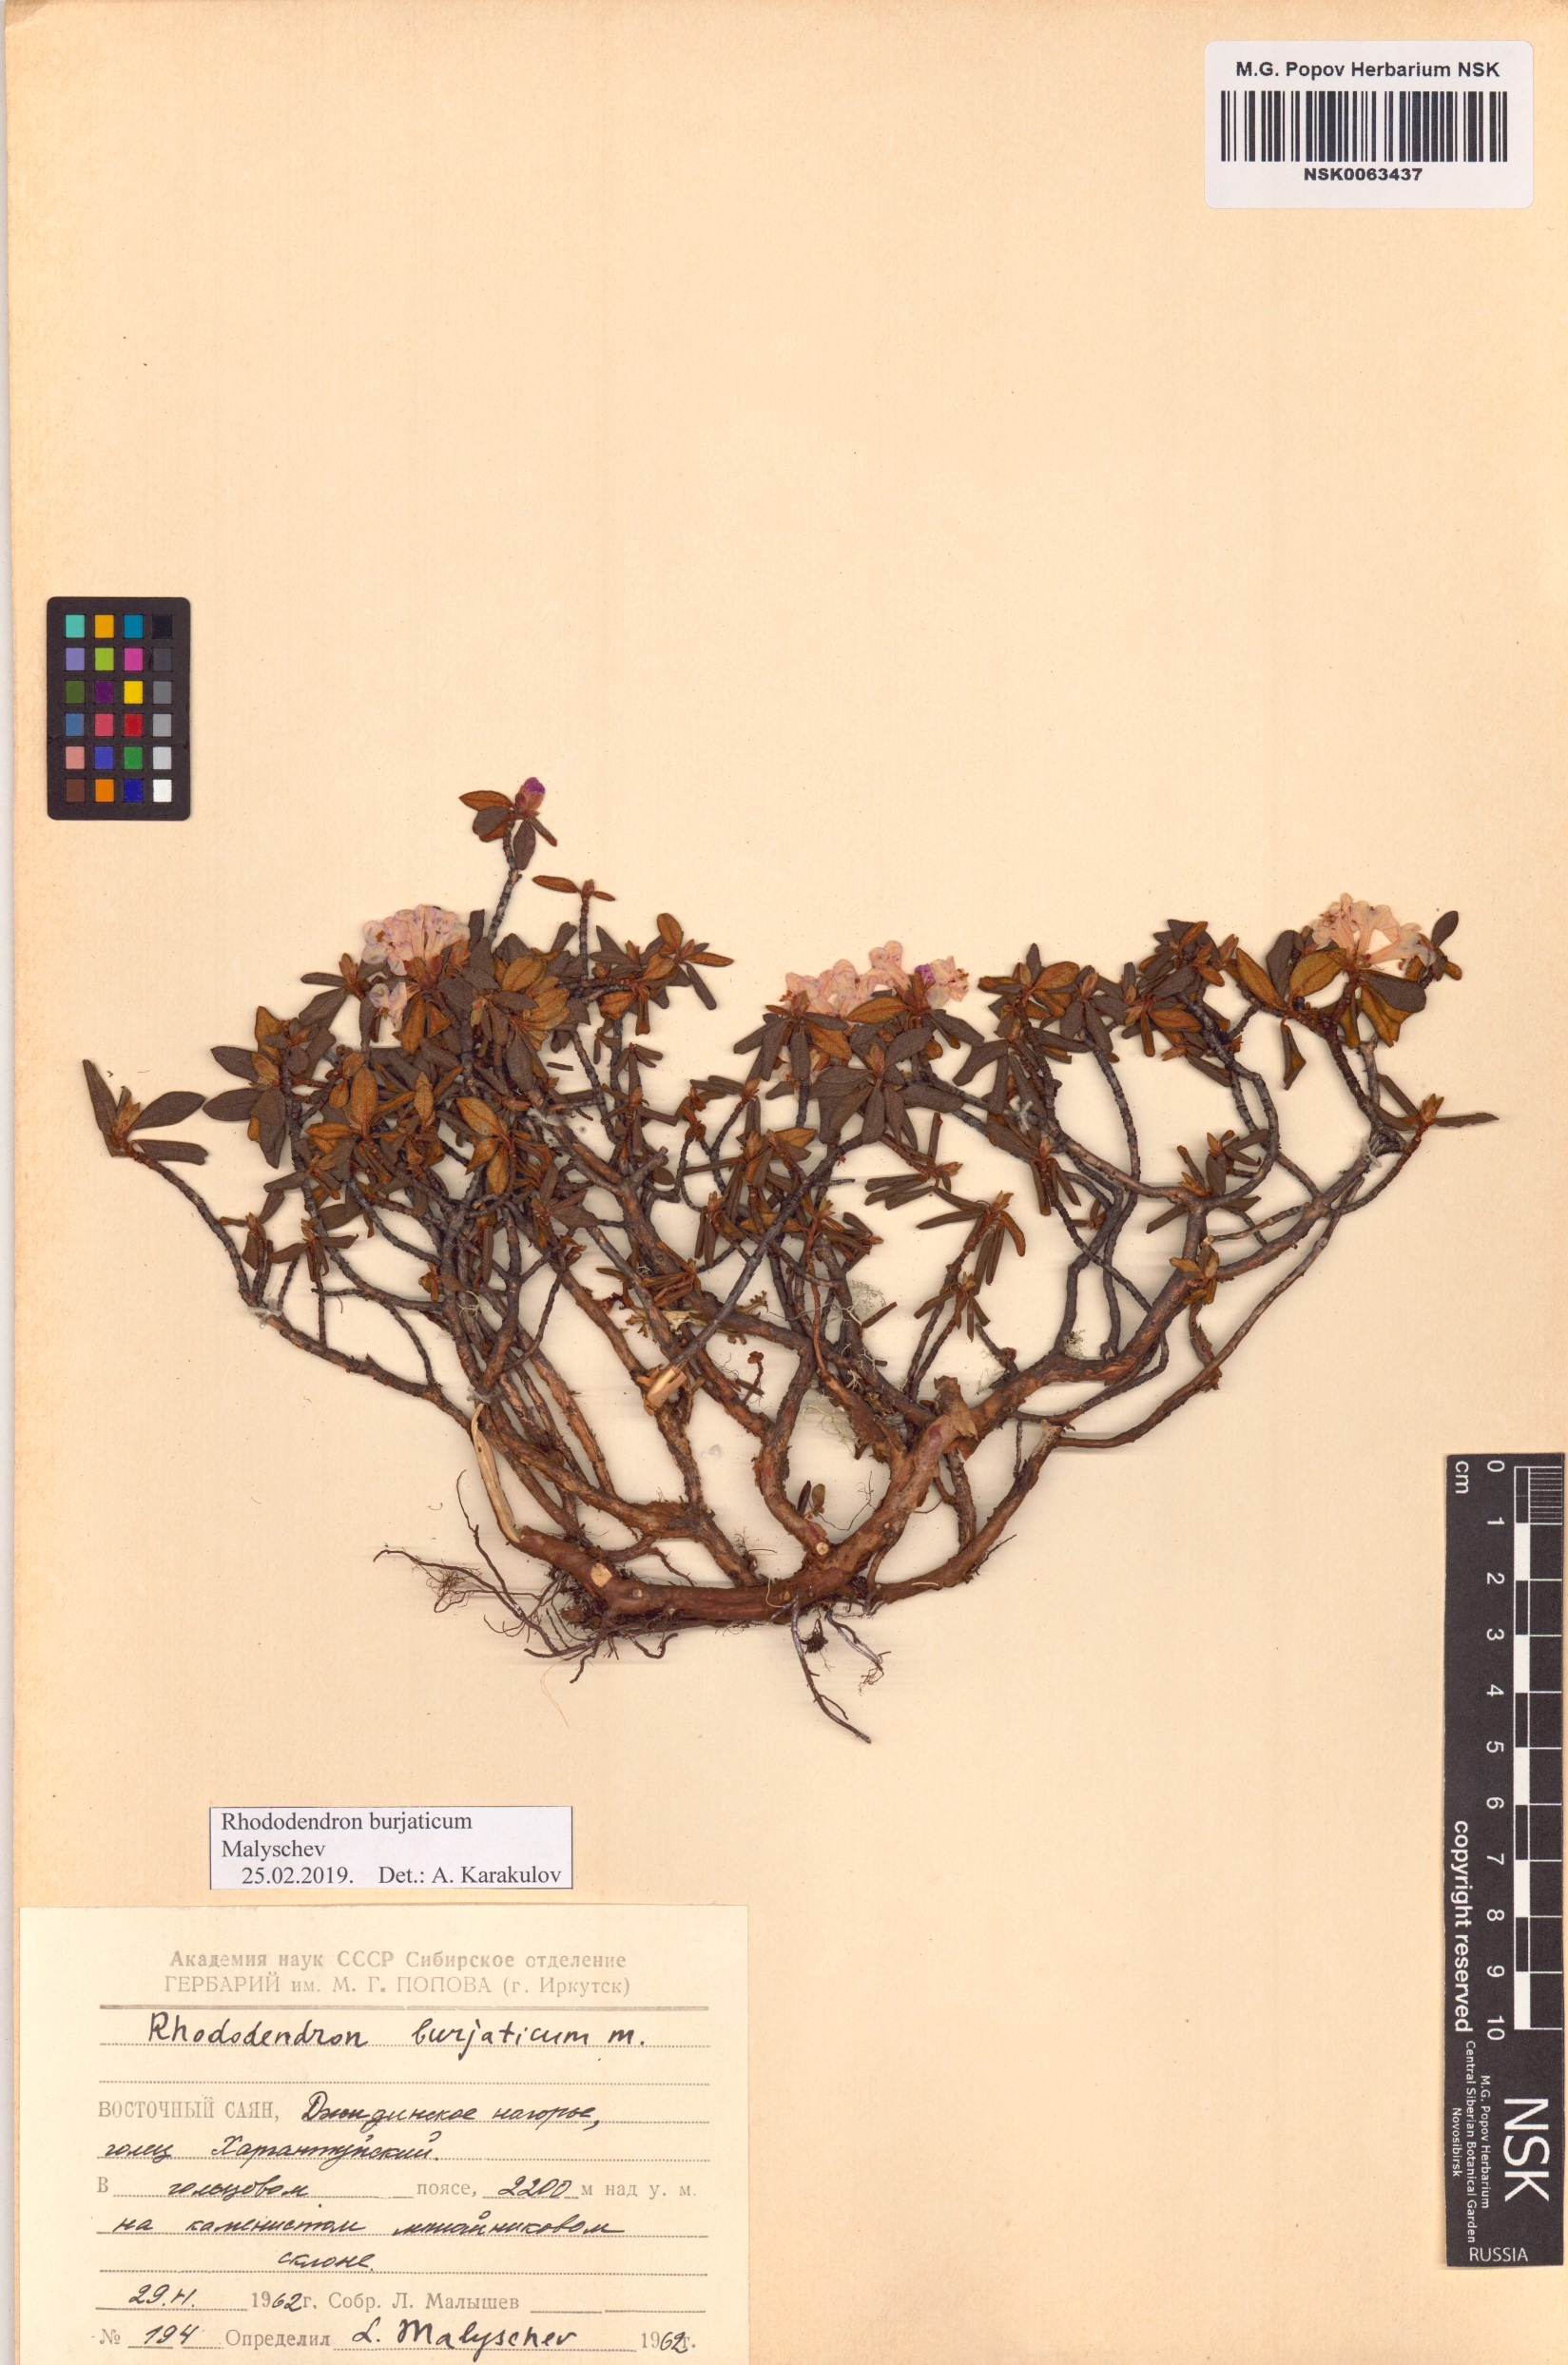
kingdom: Plantae
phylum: Tracheophyta
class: Magnoliopsida
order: Ericales
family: Ericaceae
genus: Rhododendron
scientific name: Rhododendron burjaticum
